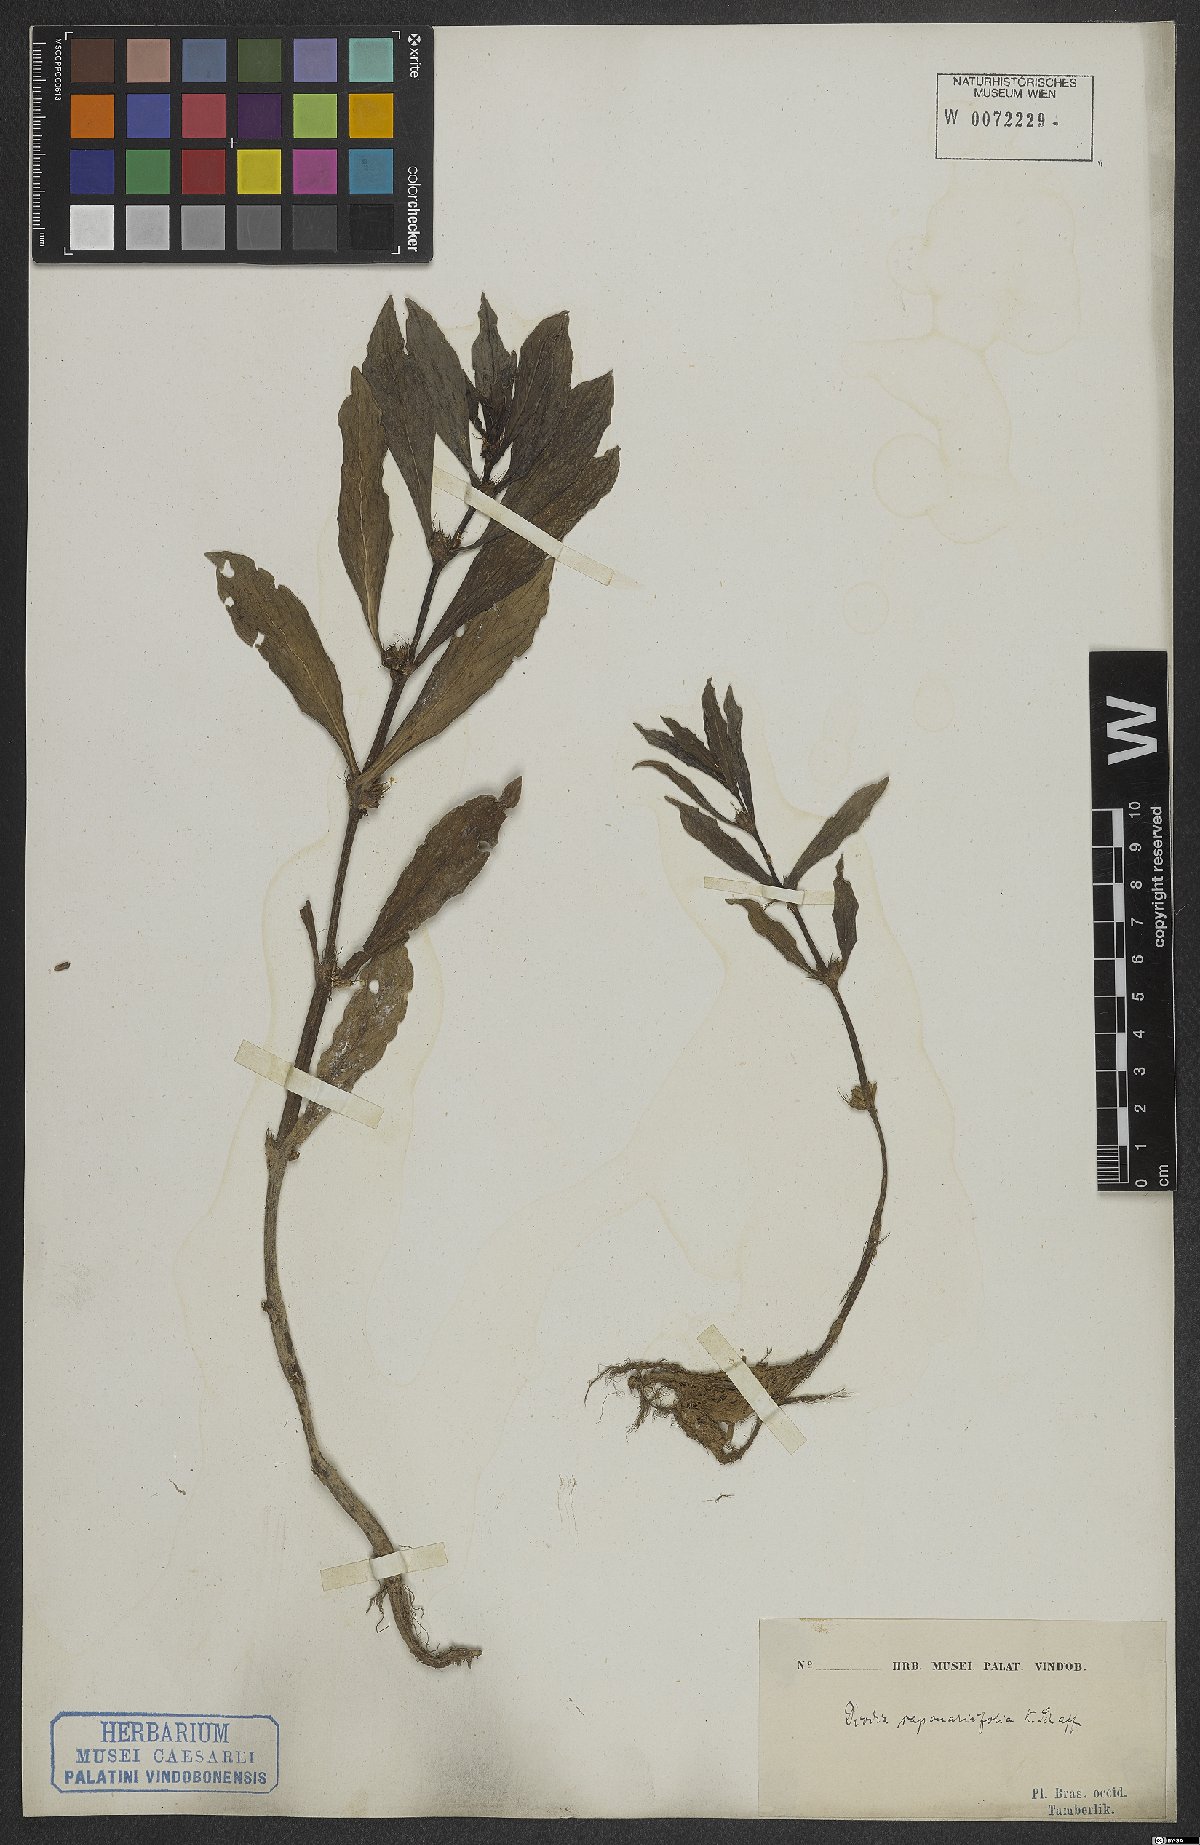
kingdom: Plantae
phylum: Tracheophyta
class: Magnoliopsida
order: Gentianales
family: Rubiaceae
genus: Diodia
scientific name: Diodia saponariifolia
